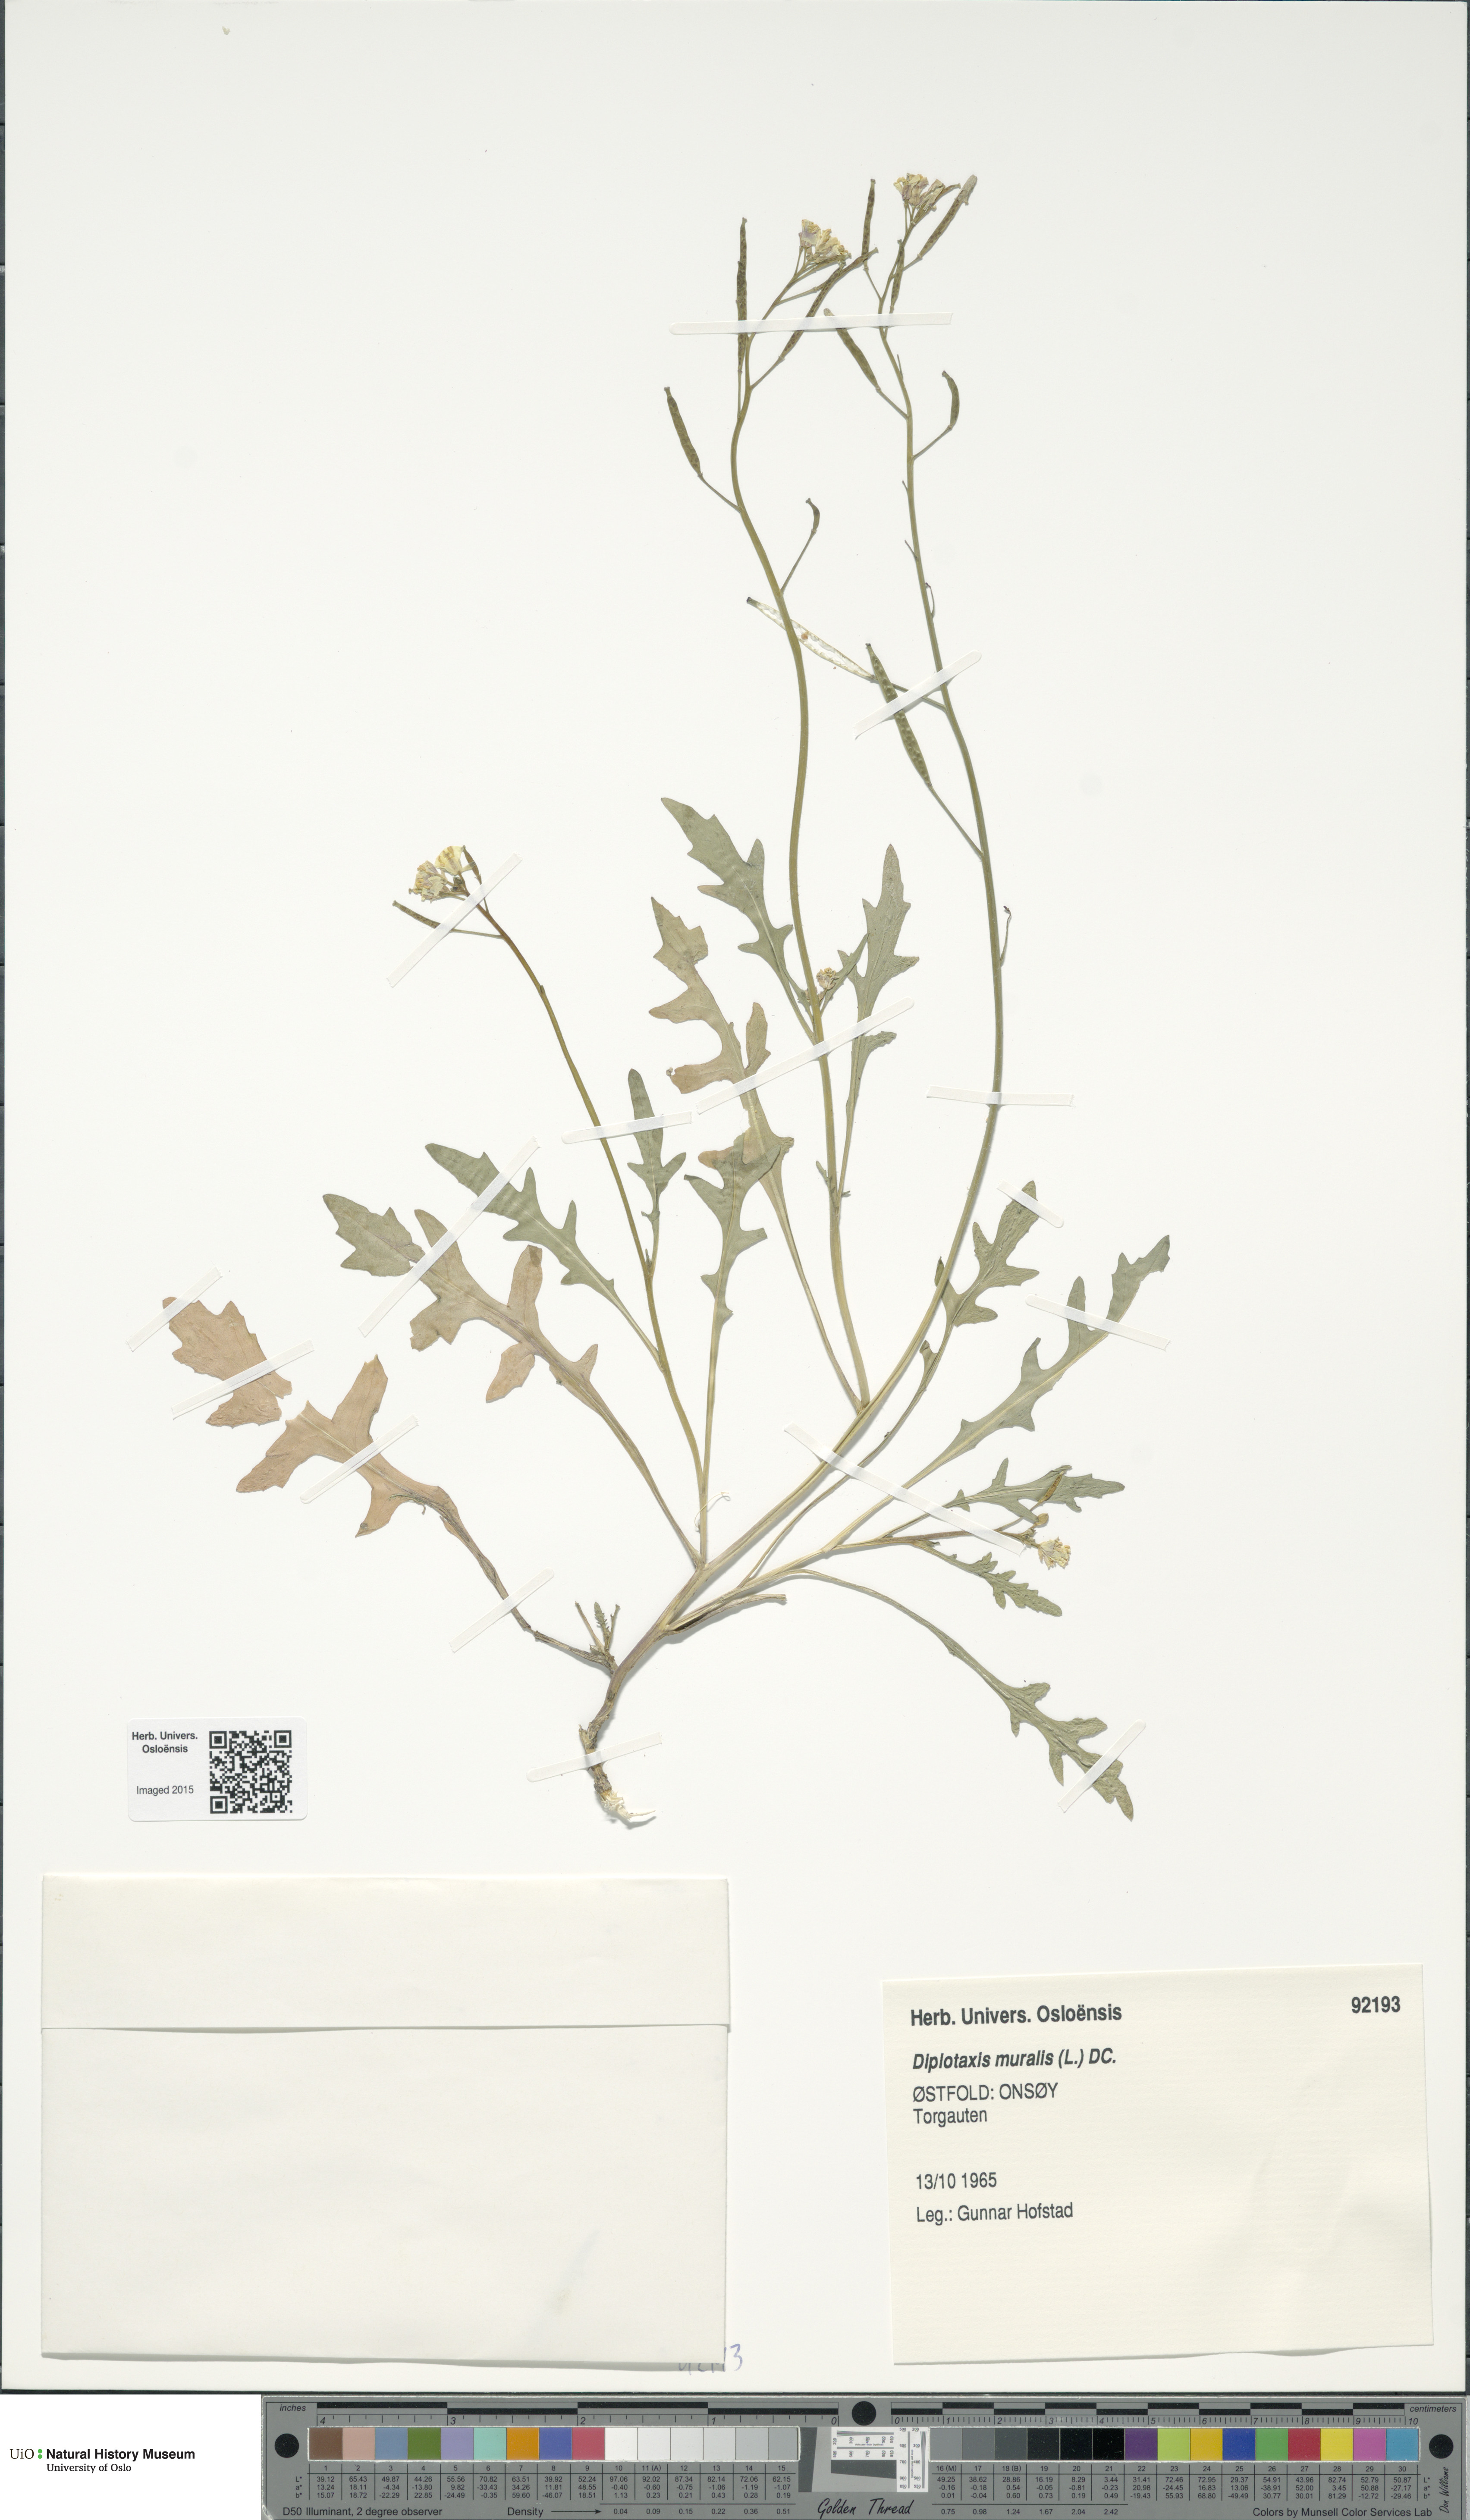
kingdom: Plantae
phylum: Tracheophyta
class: Magnoliopsida
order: Brassicales
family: Brassicaceae
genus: Diplotaxis
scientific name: Diplotaxis muralis
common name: Annual wall-rocket
